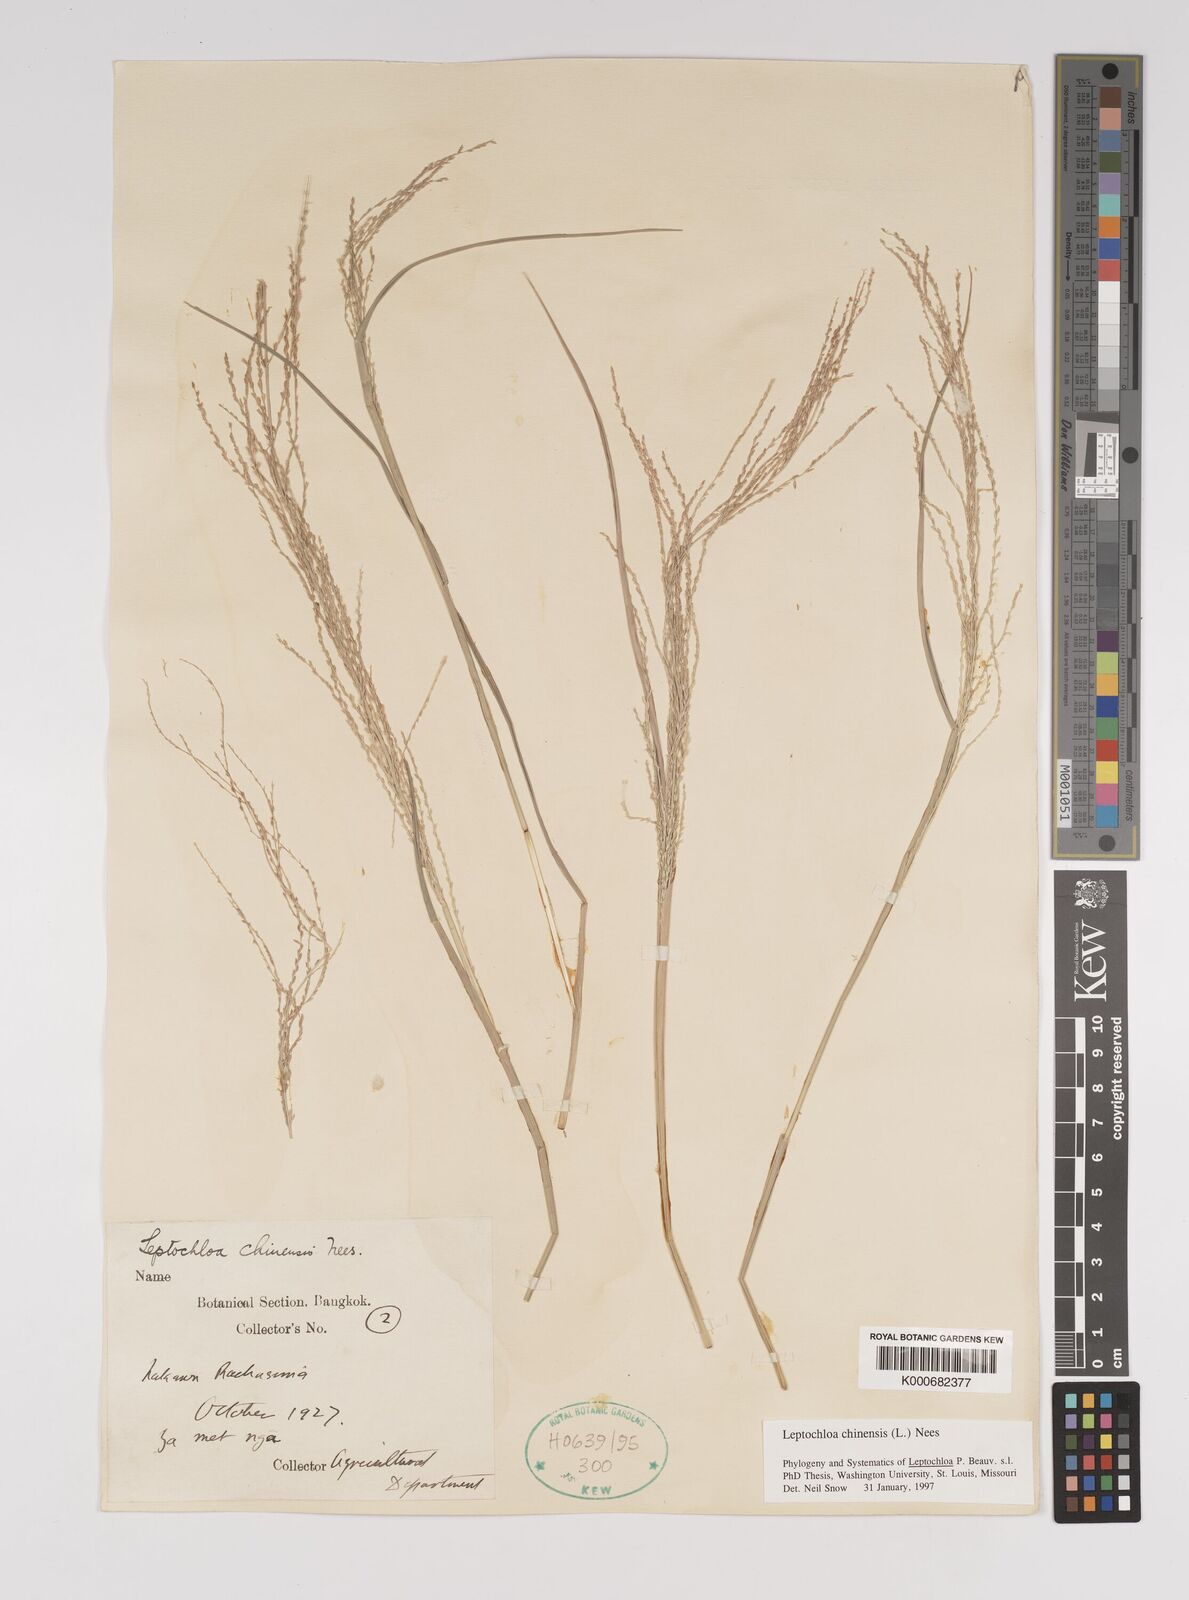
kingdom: Plantae
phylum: Tracheophyta
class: Liliopsida
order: Poales
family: Poaceae
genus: Leptochloa
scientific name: Leptochloa chinensis
